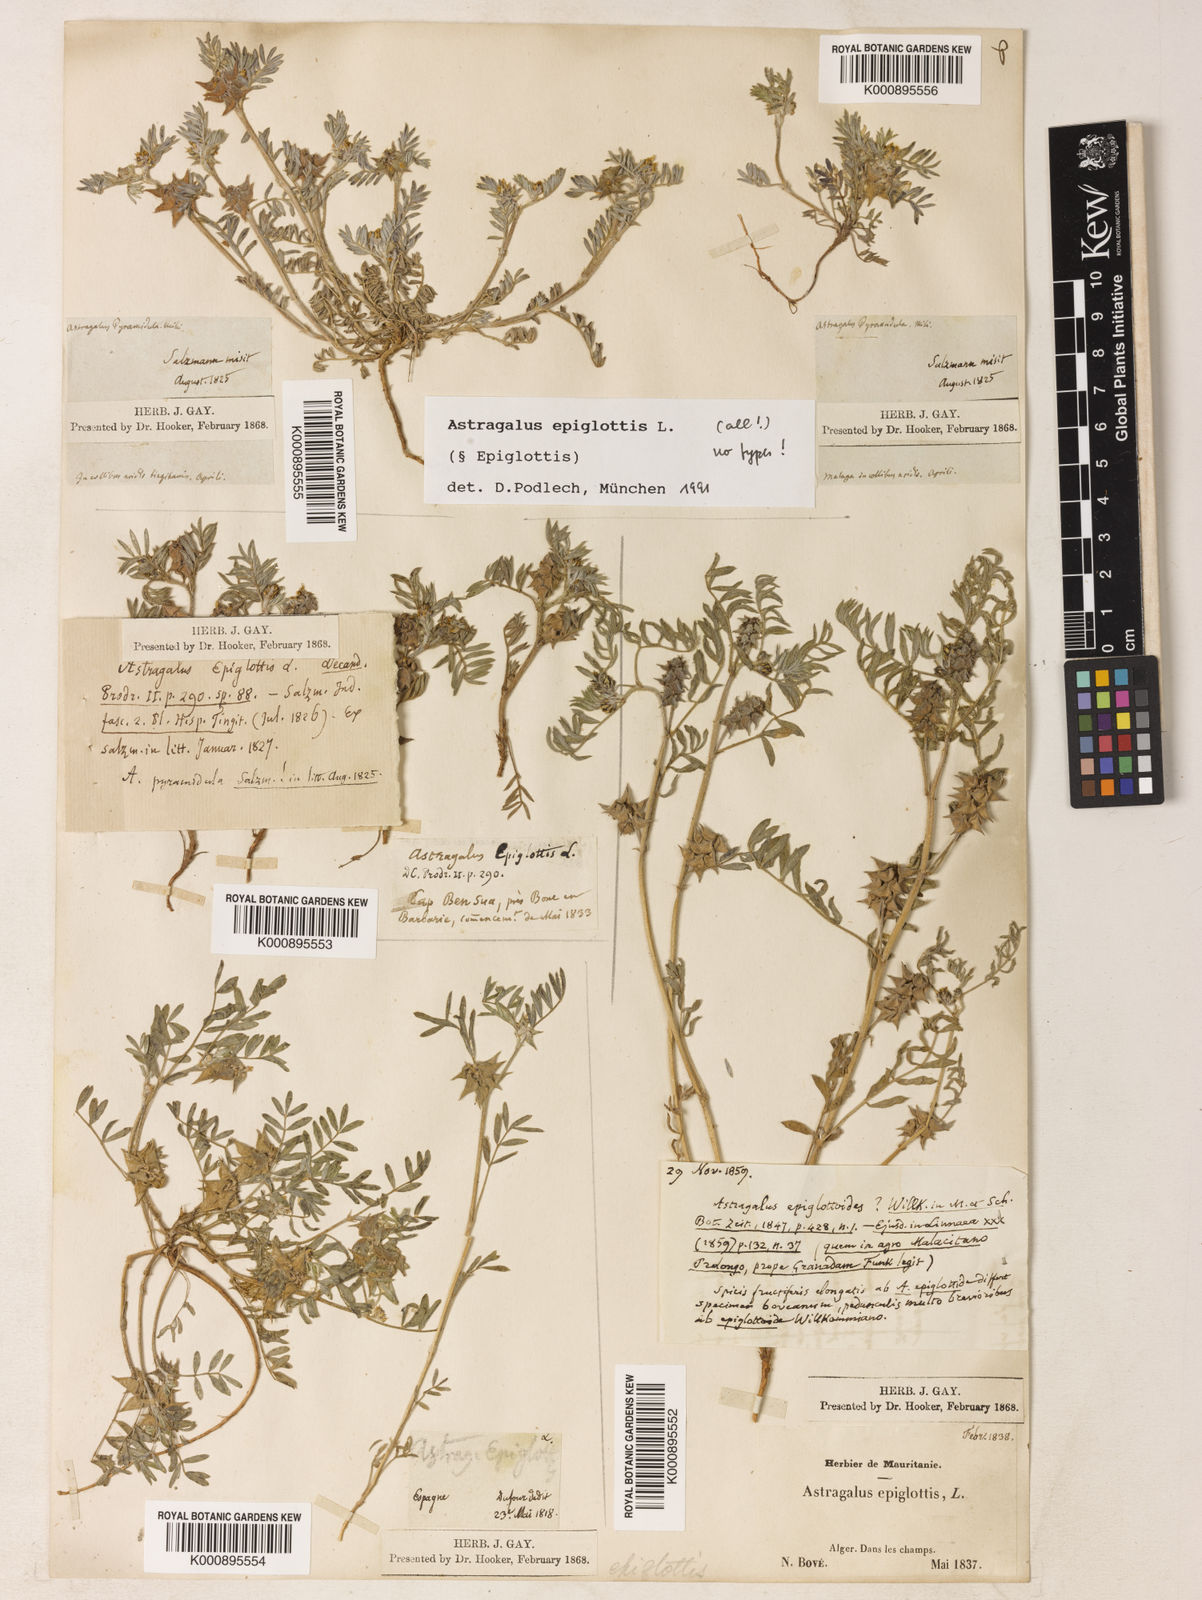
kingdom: Plantae
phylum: Tracheophyta
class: Magnoliopsida
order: Fabales
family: Fabaceae
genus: Biserrula
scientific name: Biserrula epiglottis
